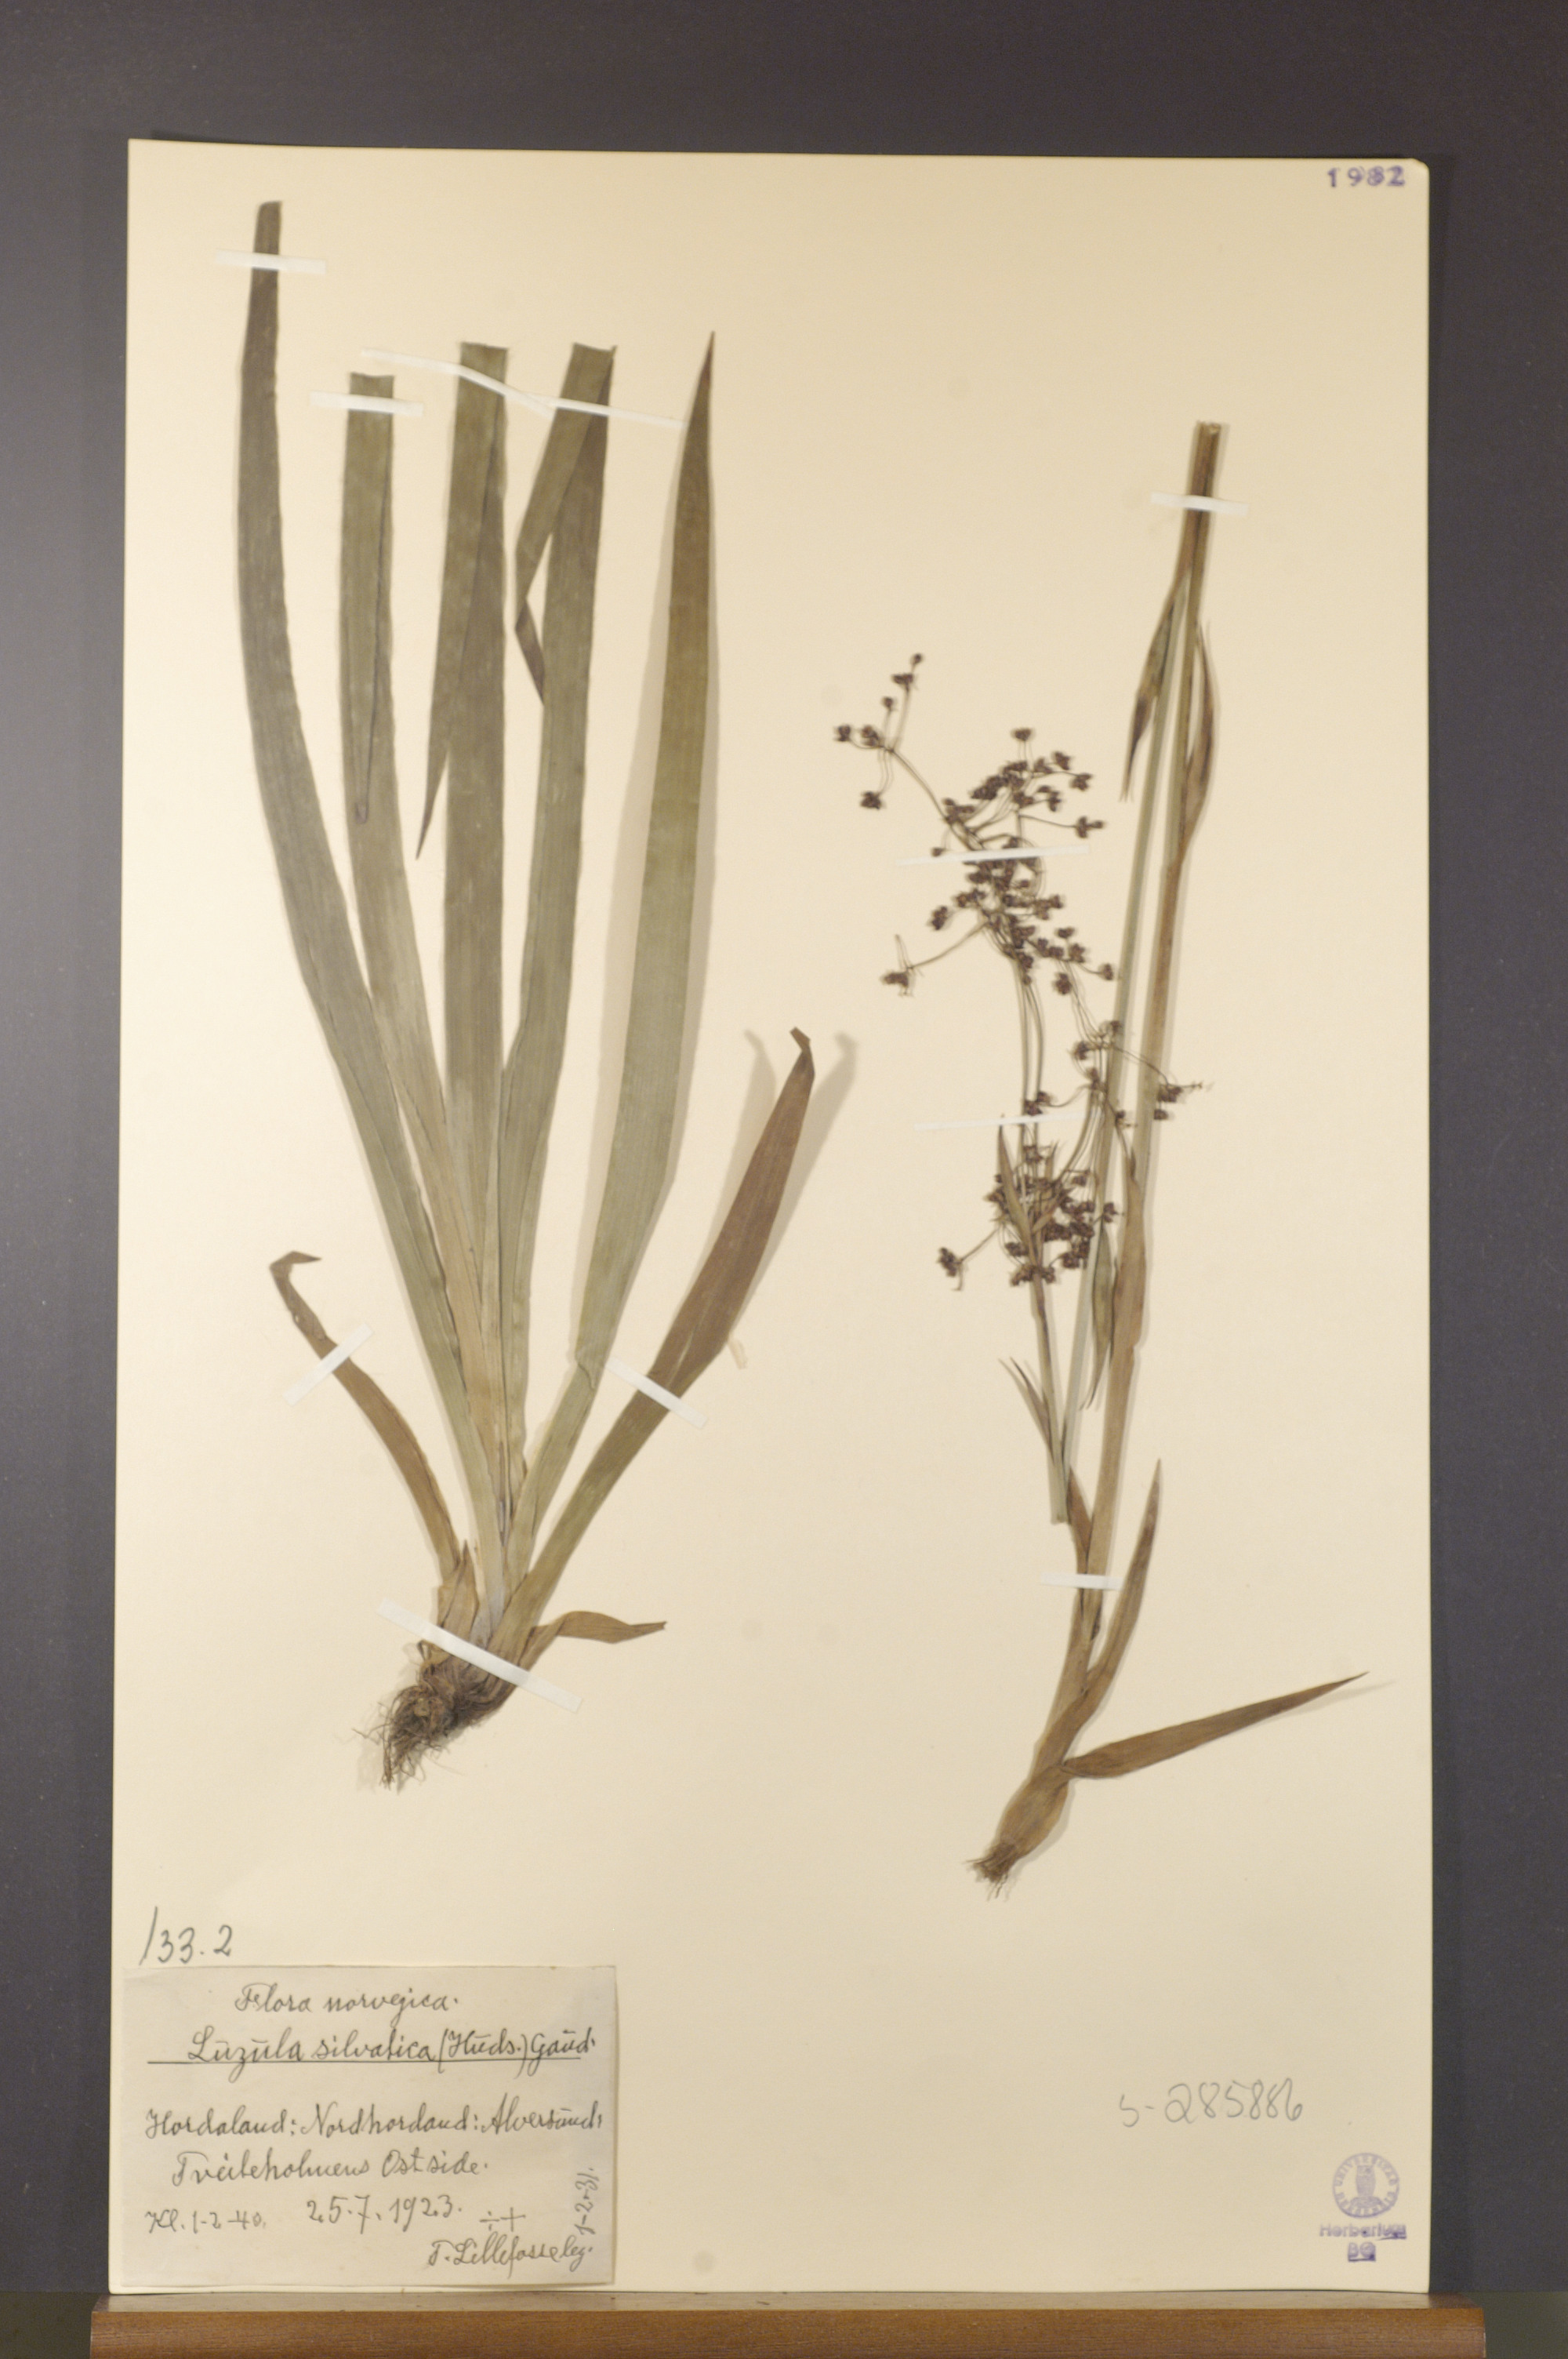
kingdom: Plantae
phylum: Tracheophyta
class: Liliopsida
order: Poales
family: Juncaceae
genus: Luzula
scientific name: Luzula sylvatica
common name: Great wood-rush
